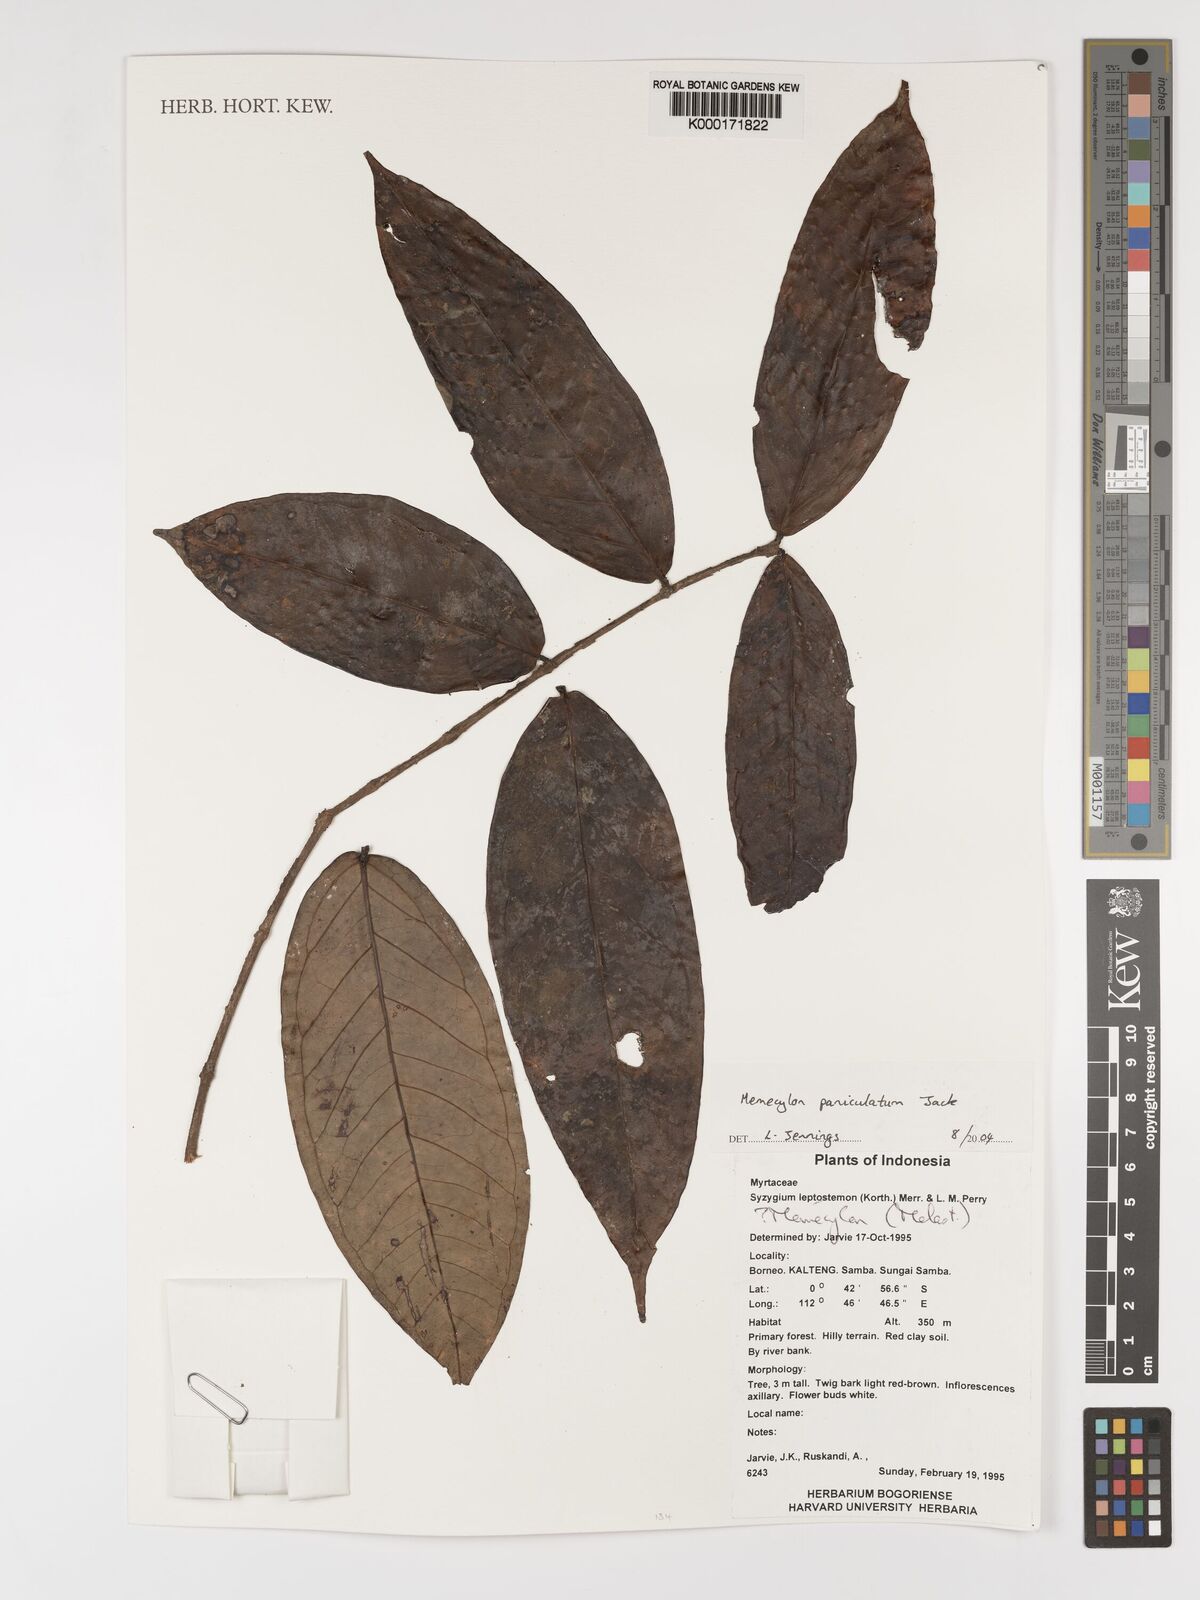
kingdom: Plantae
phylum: Tracheophyta
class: Magnoliopsida
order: Myrtales
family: Melastomataceae
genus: Memecylon
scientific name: Memecylon paniculatum
